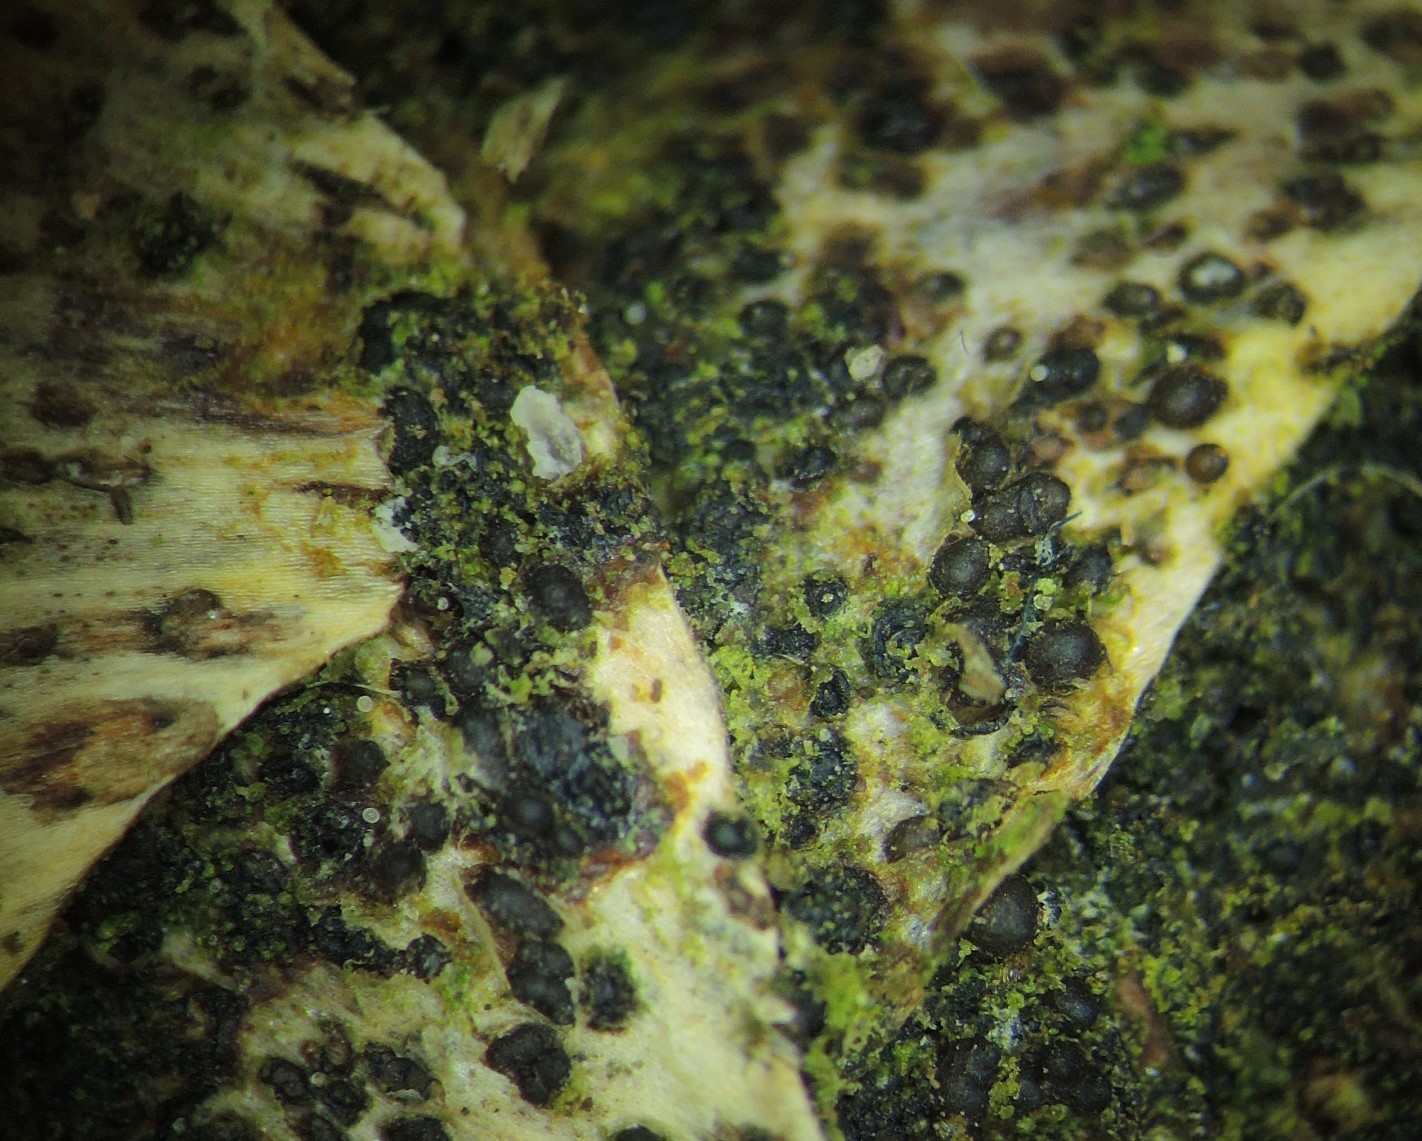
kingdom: Fungi
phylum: Ascomycota
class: Sordariomycetes
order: Diaporthales
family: Gnomoniaceae
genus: Sirococcus
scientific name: Sirococcus conigenus
